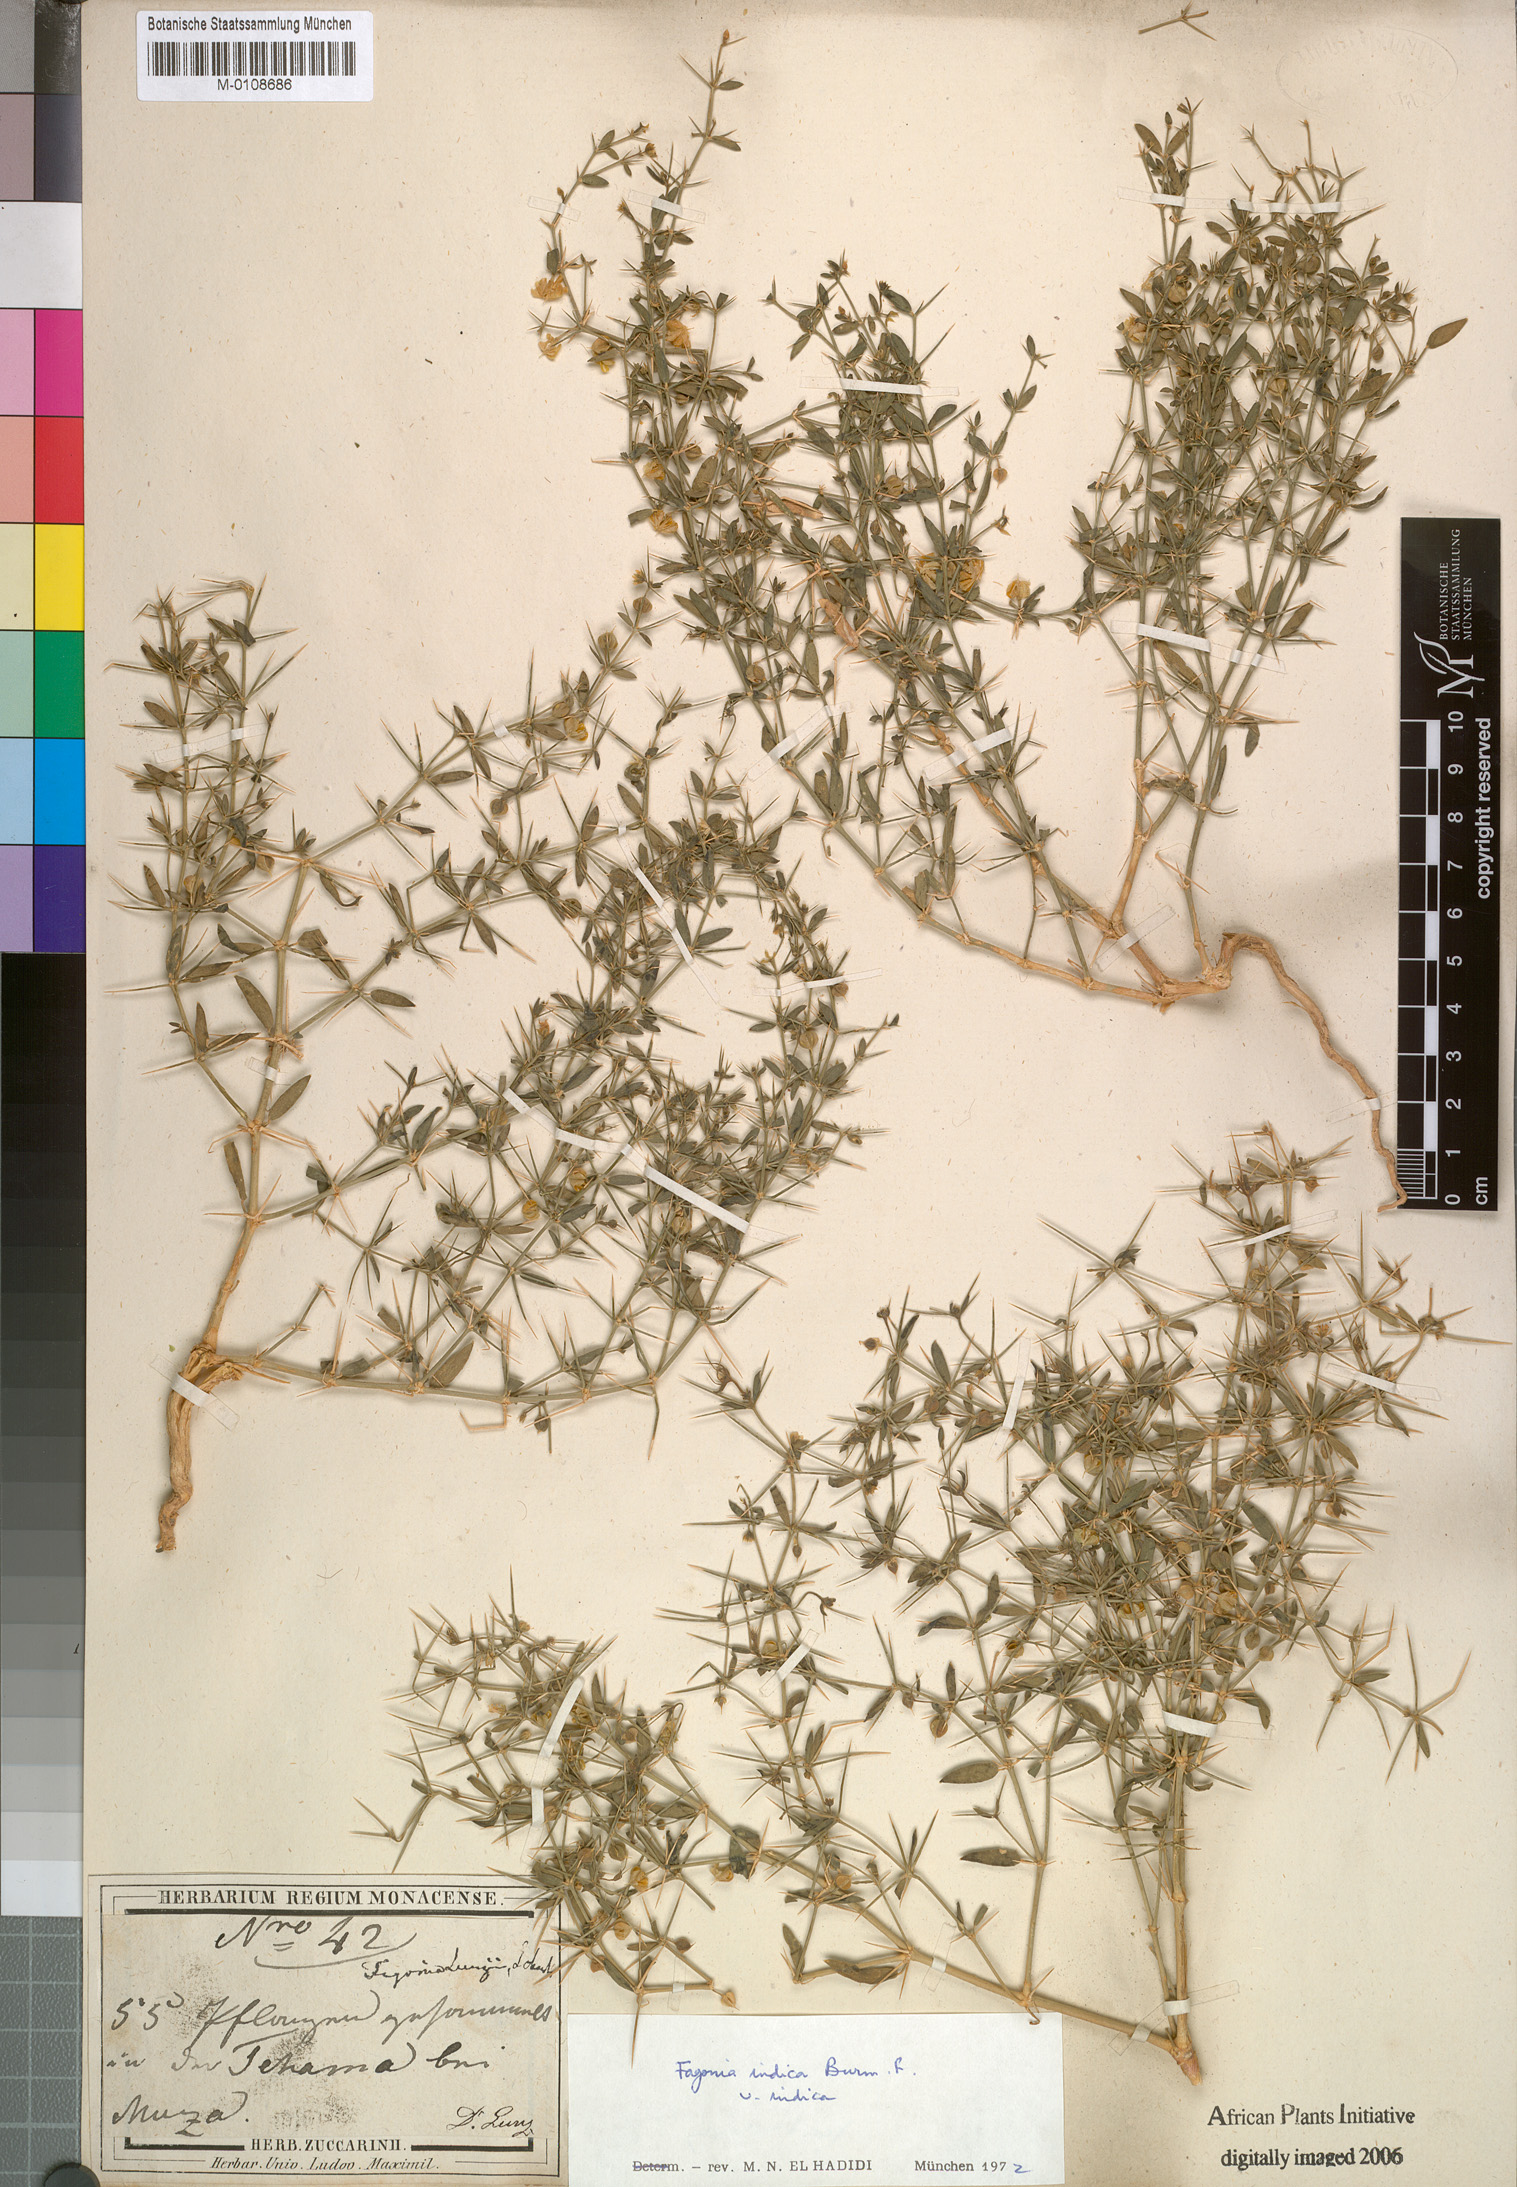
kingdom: Plantae
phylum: Tracheophyta
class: Magnoliopsida
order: Zygophyllales
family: Zygophyllaceae
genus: Fagonia
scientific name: Fagonia indica
